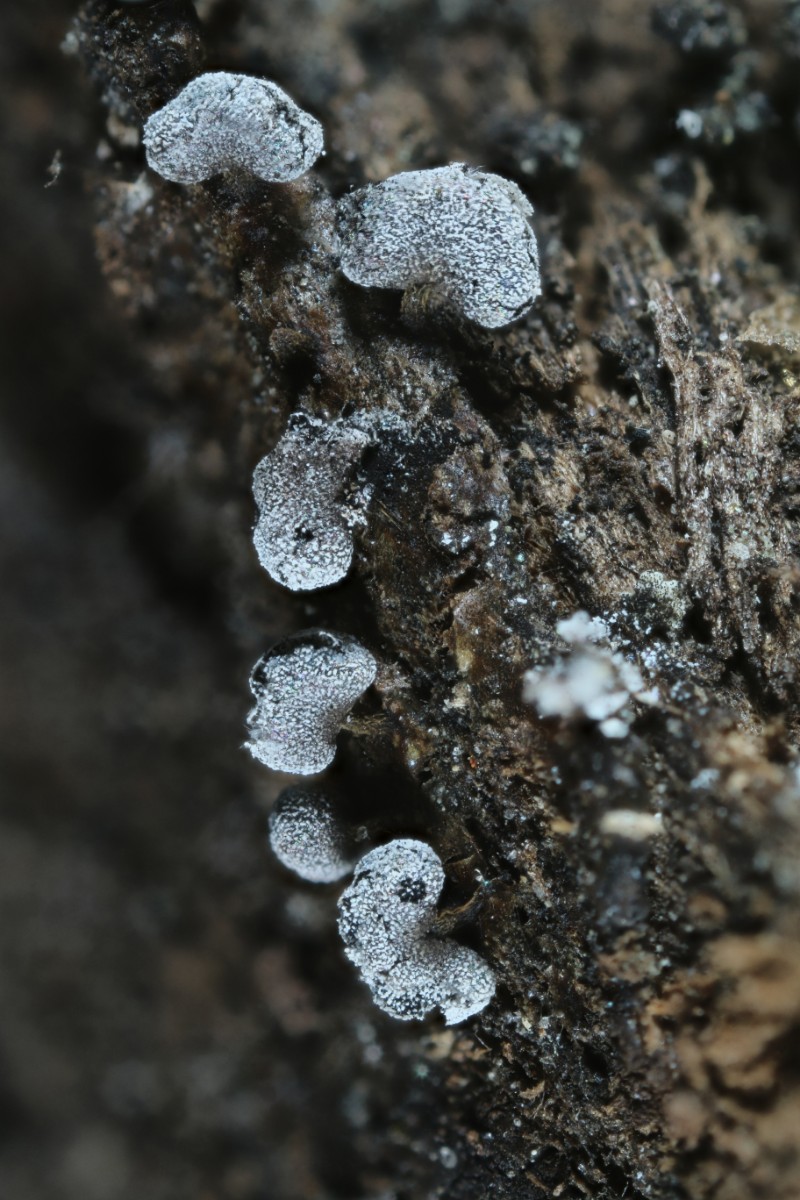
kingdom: Protozoa
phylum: Mycetozoa
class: Myxomycetes
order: Physarales
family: Physaraceae
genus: Physarum
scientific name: Physarum compressum
